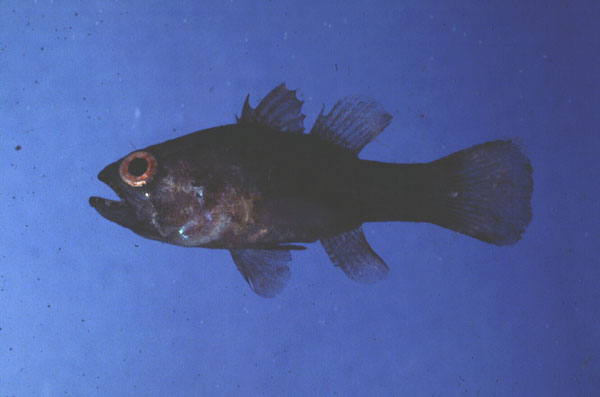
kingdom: Animalia
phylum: Chordata
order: Perciformes
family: Apogonidae
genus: Apogonichthys
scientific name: Apogonichthys perdix
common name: Perdix cardinalfish
